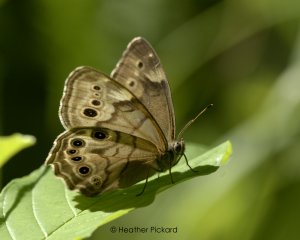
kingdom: Animalia
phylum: Arthropoda
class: Insecta
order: Lepidoptera
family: Nymphalidae
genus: Lethe
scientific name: Lethe anthedon
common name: Northern Pearly-Eye
